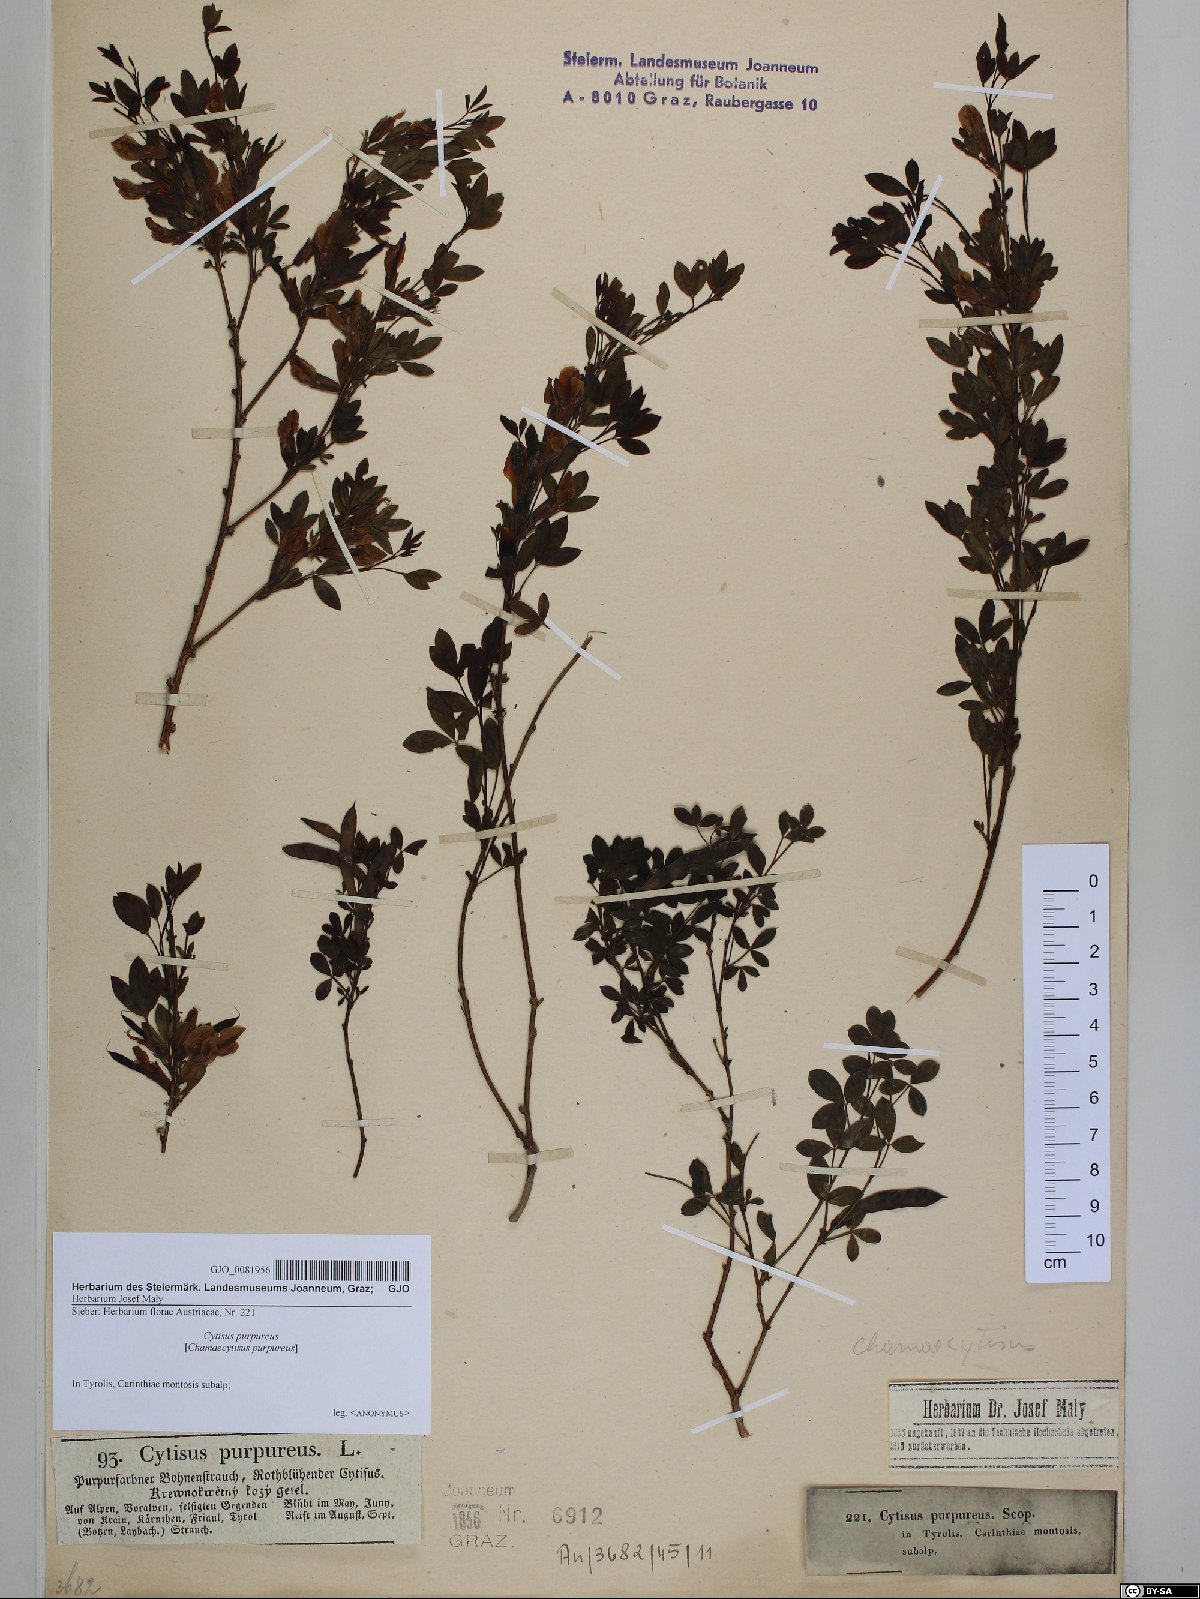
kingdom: Plantae
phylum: Tracheophyta
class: Magnoliopsida
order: Fabales
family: Fabaceae
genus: Chamaecytisus
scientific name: Chamaecytisus purpureus
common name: Purple broom
